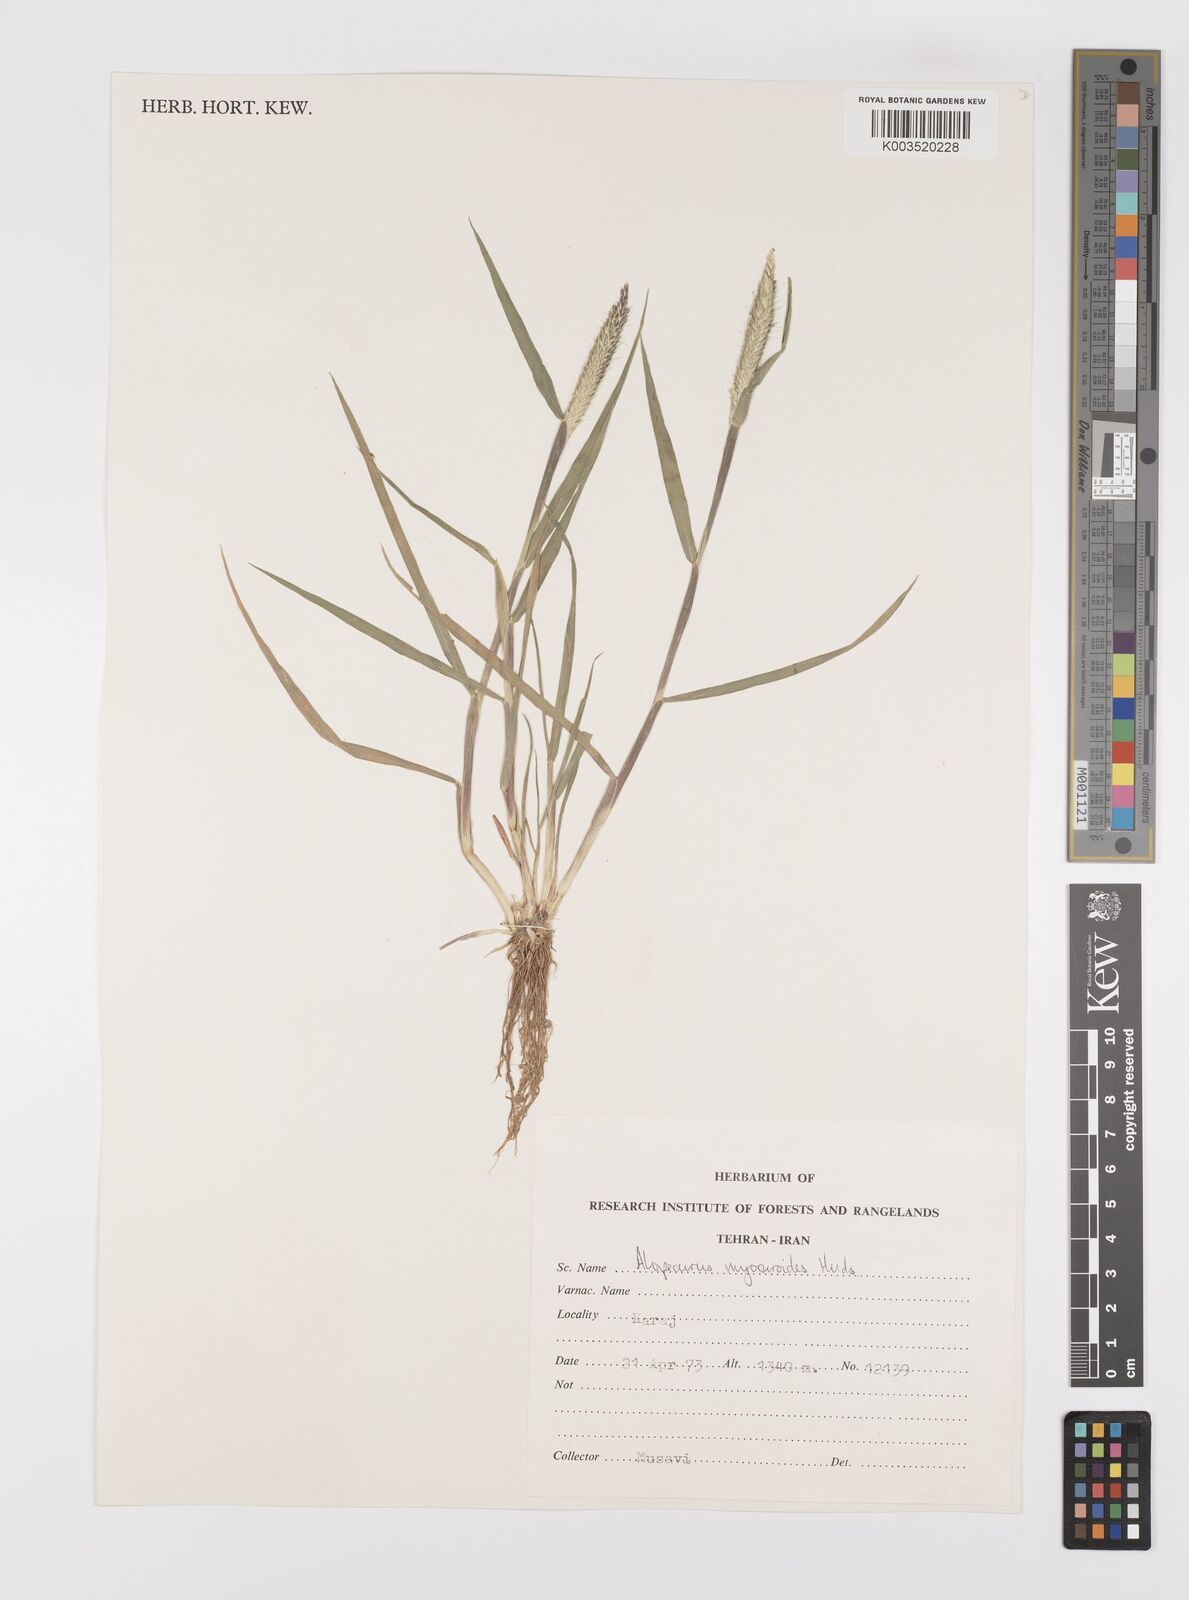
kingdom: Plantae
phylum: Tracheophyta
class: Liliopsida
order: Poales
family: Poaceae
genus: Alopecurus
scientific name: Alopecurus myosuroides
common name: Black-grass
